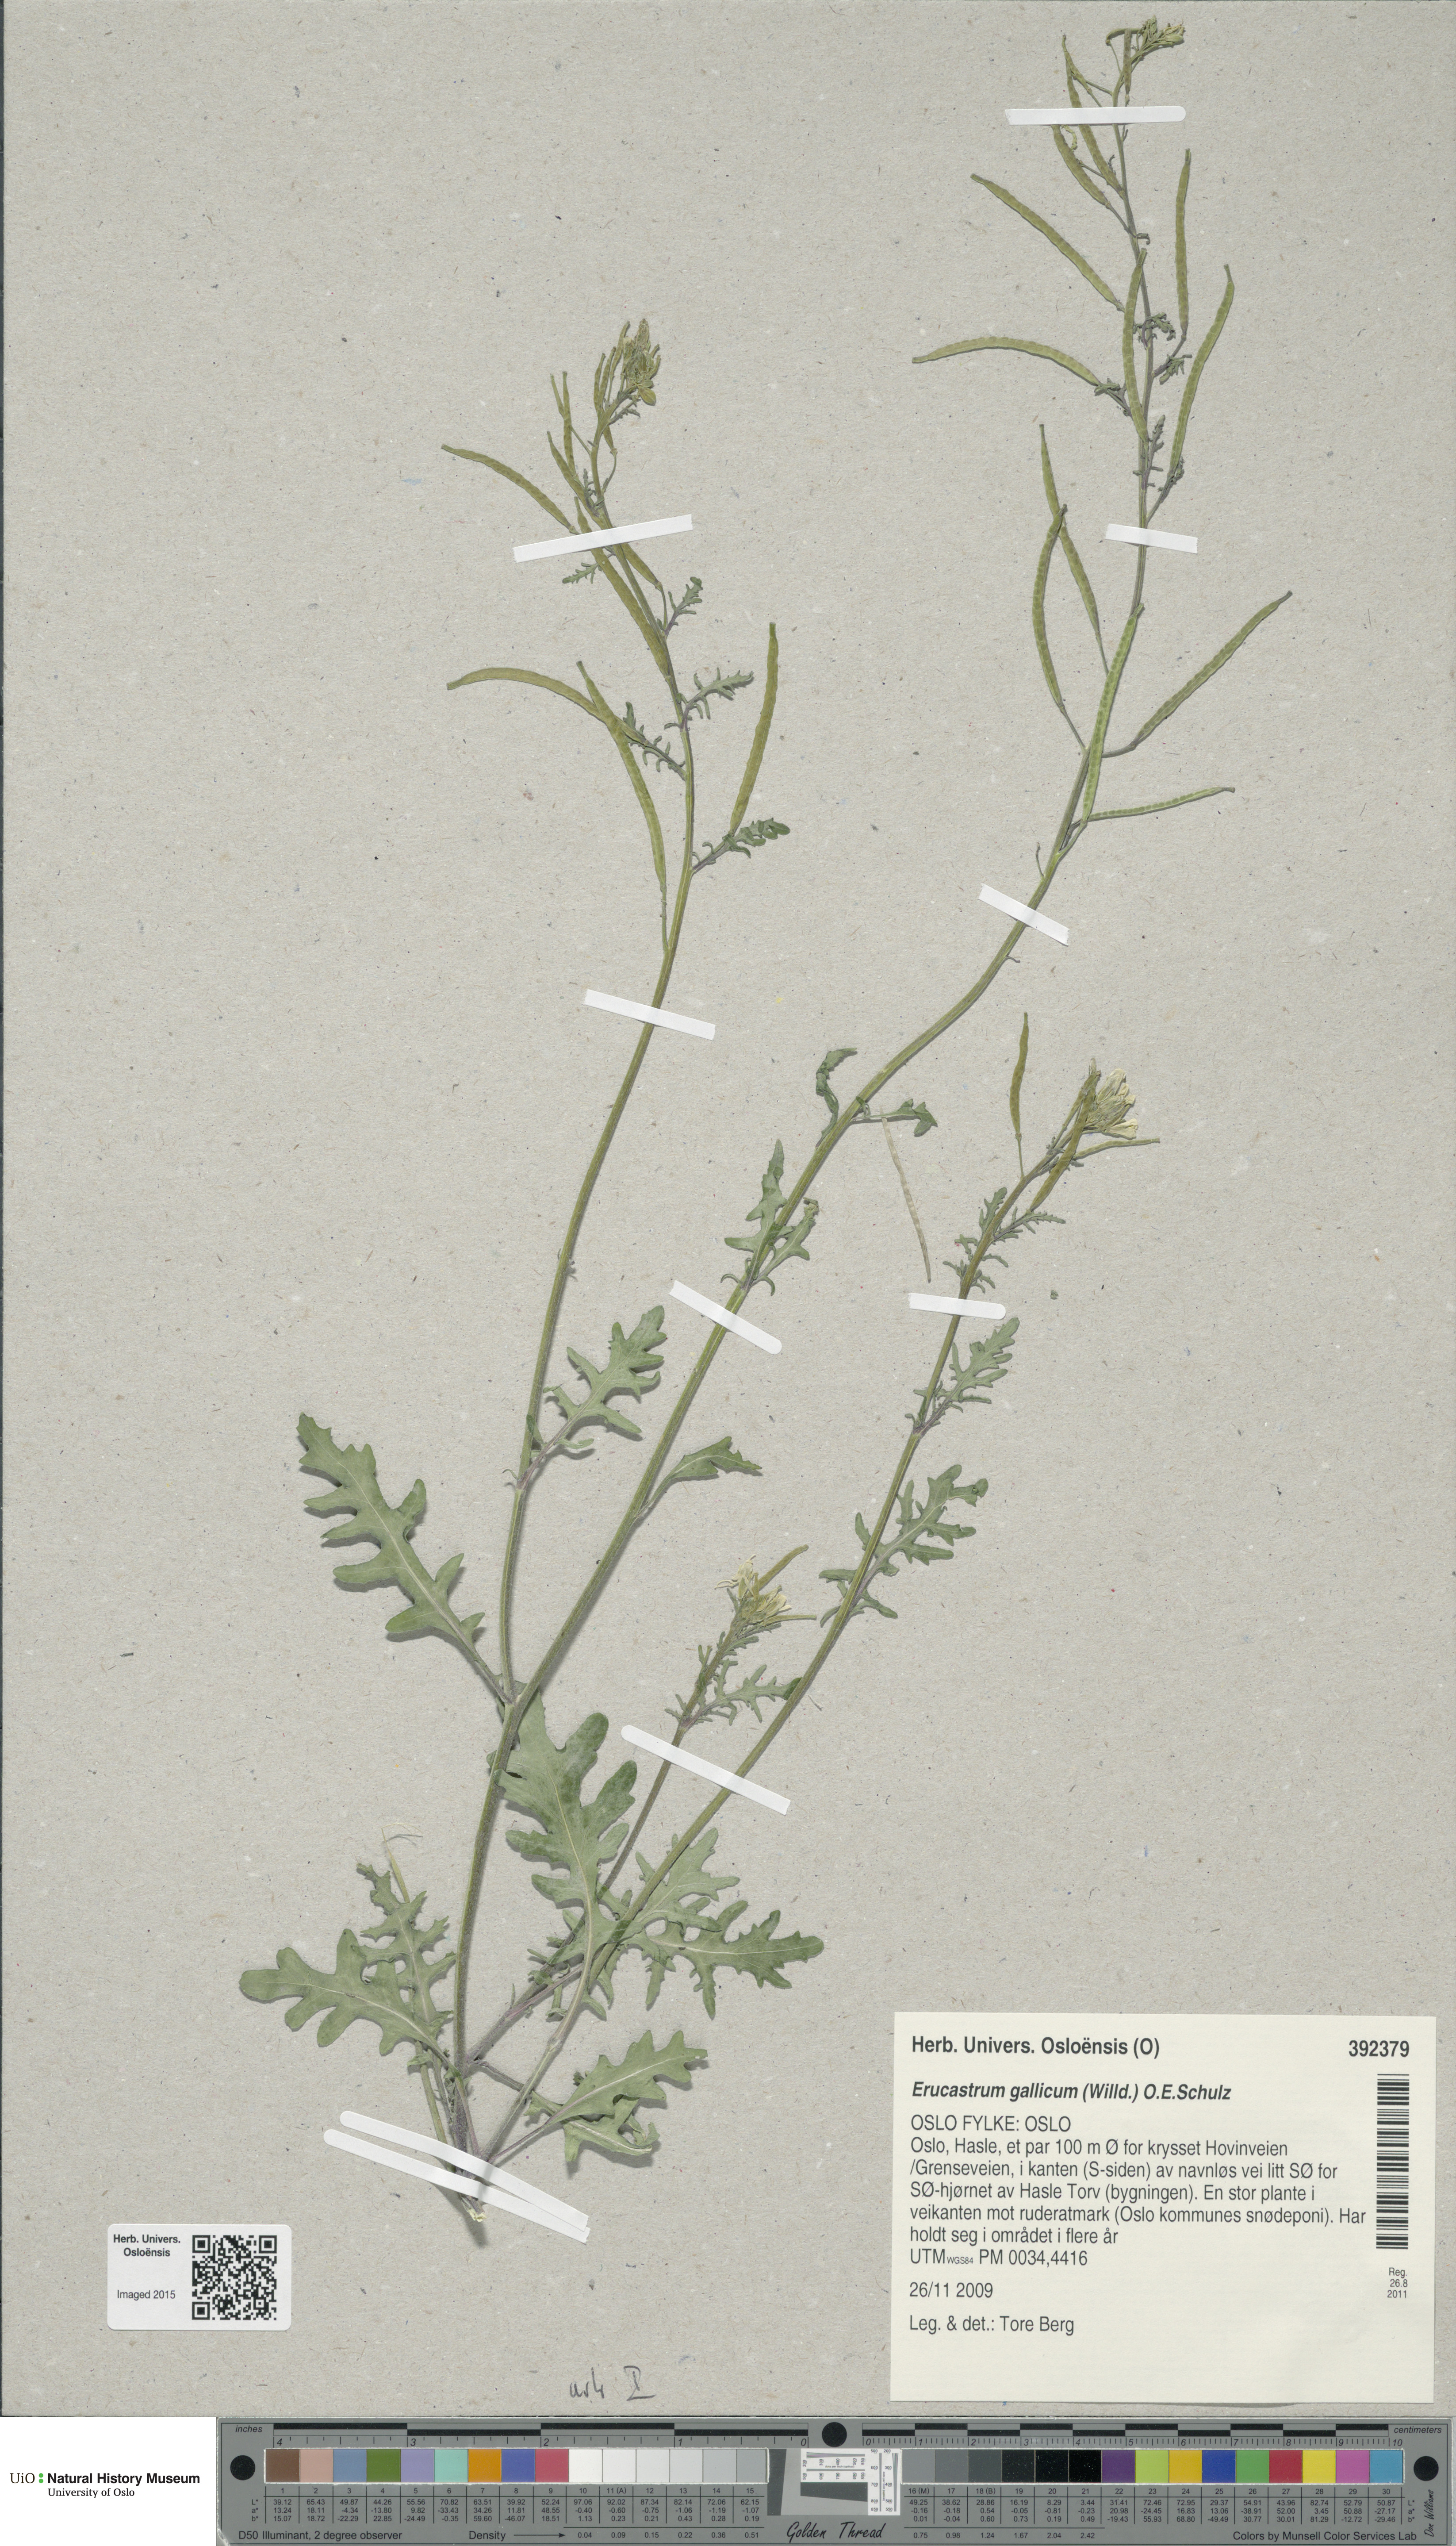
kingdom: Plantae
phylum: Tracheophyta
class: Magnoliopsida
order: Brassicales
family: Brassicaceae
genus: Erucastrum
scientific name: Erucastrum gallicum
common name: Hairy rocket
